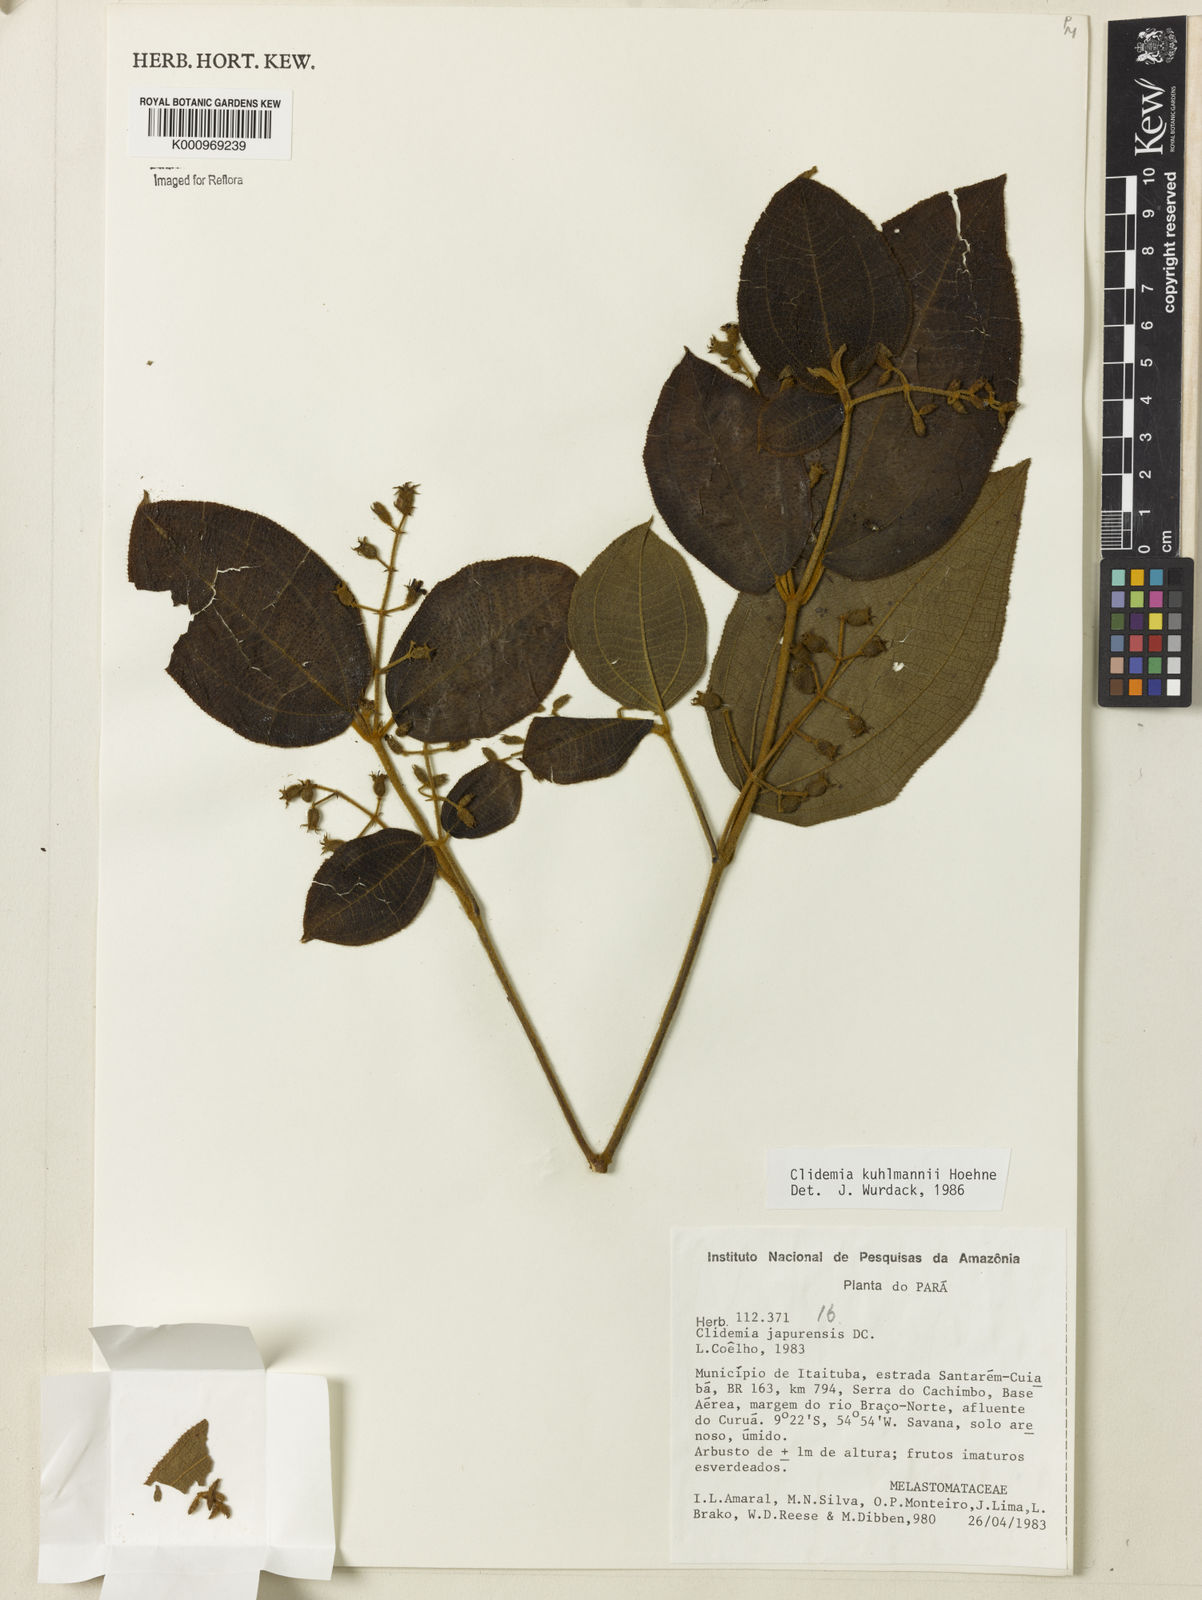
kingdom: Plantae
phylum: Tracheophyta
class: Magnoliopsida
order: Myrtales
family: Melastomataceae
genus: Miconia
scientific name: Miconia dependens
